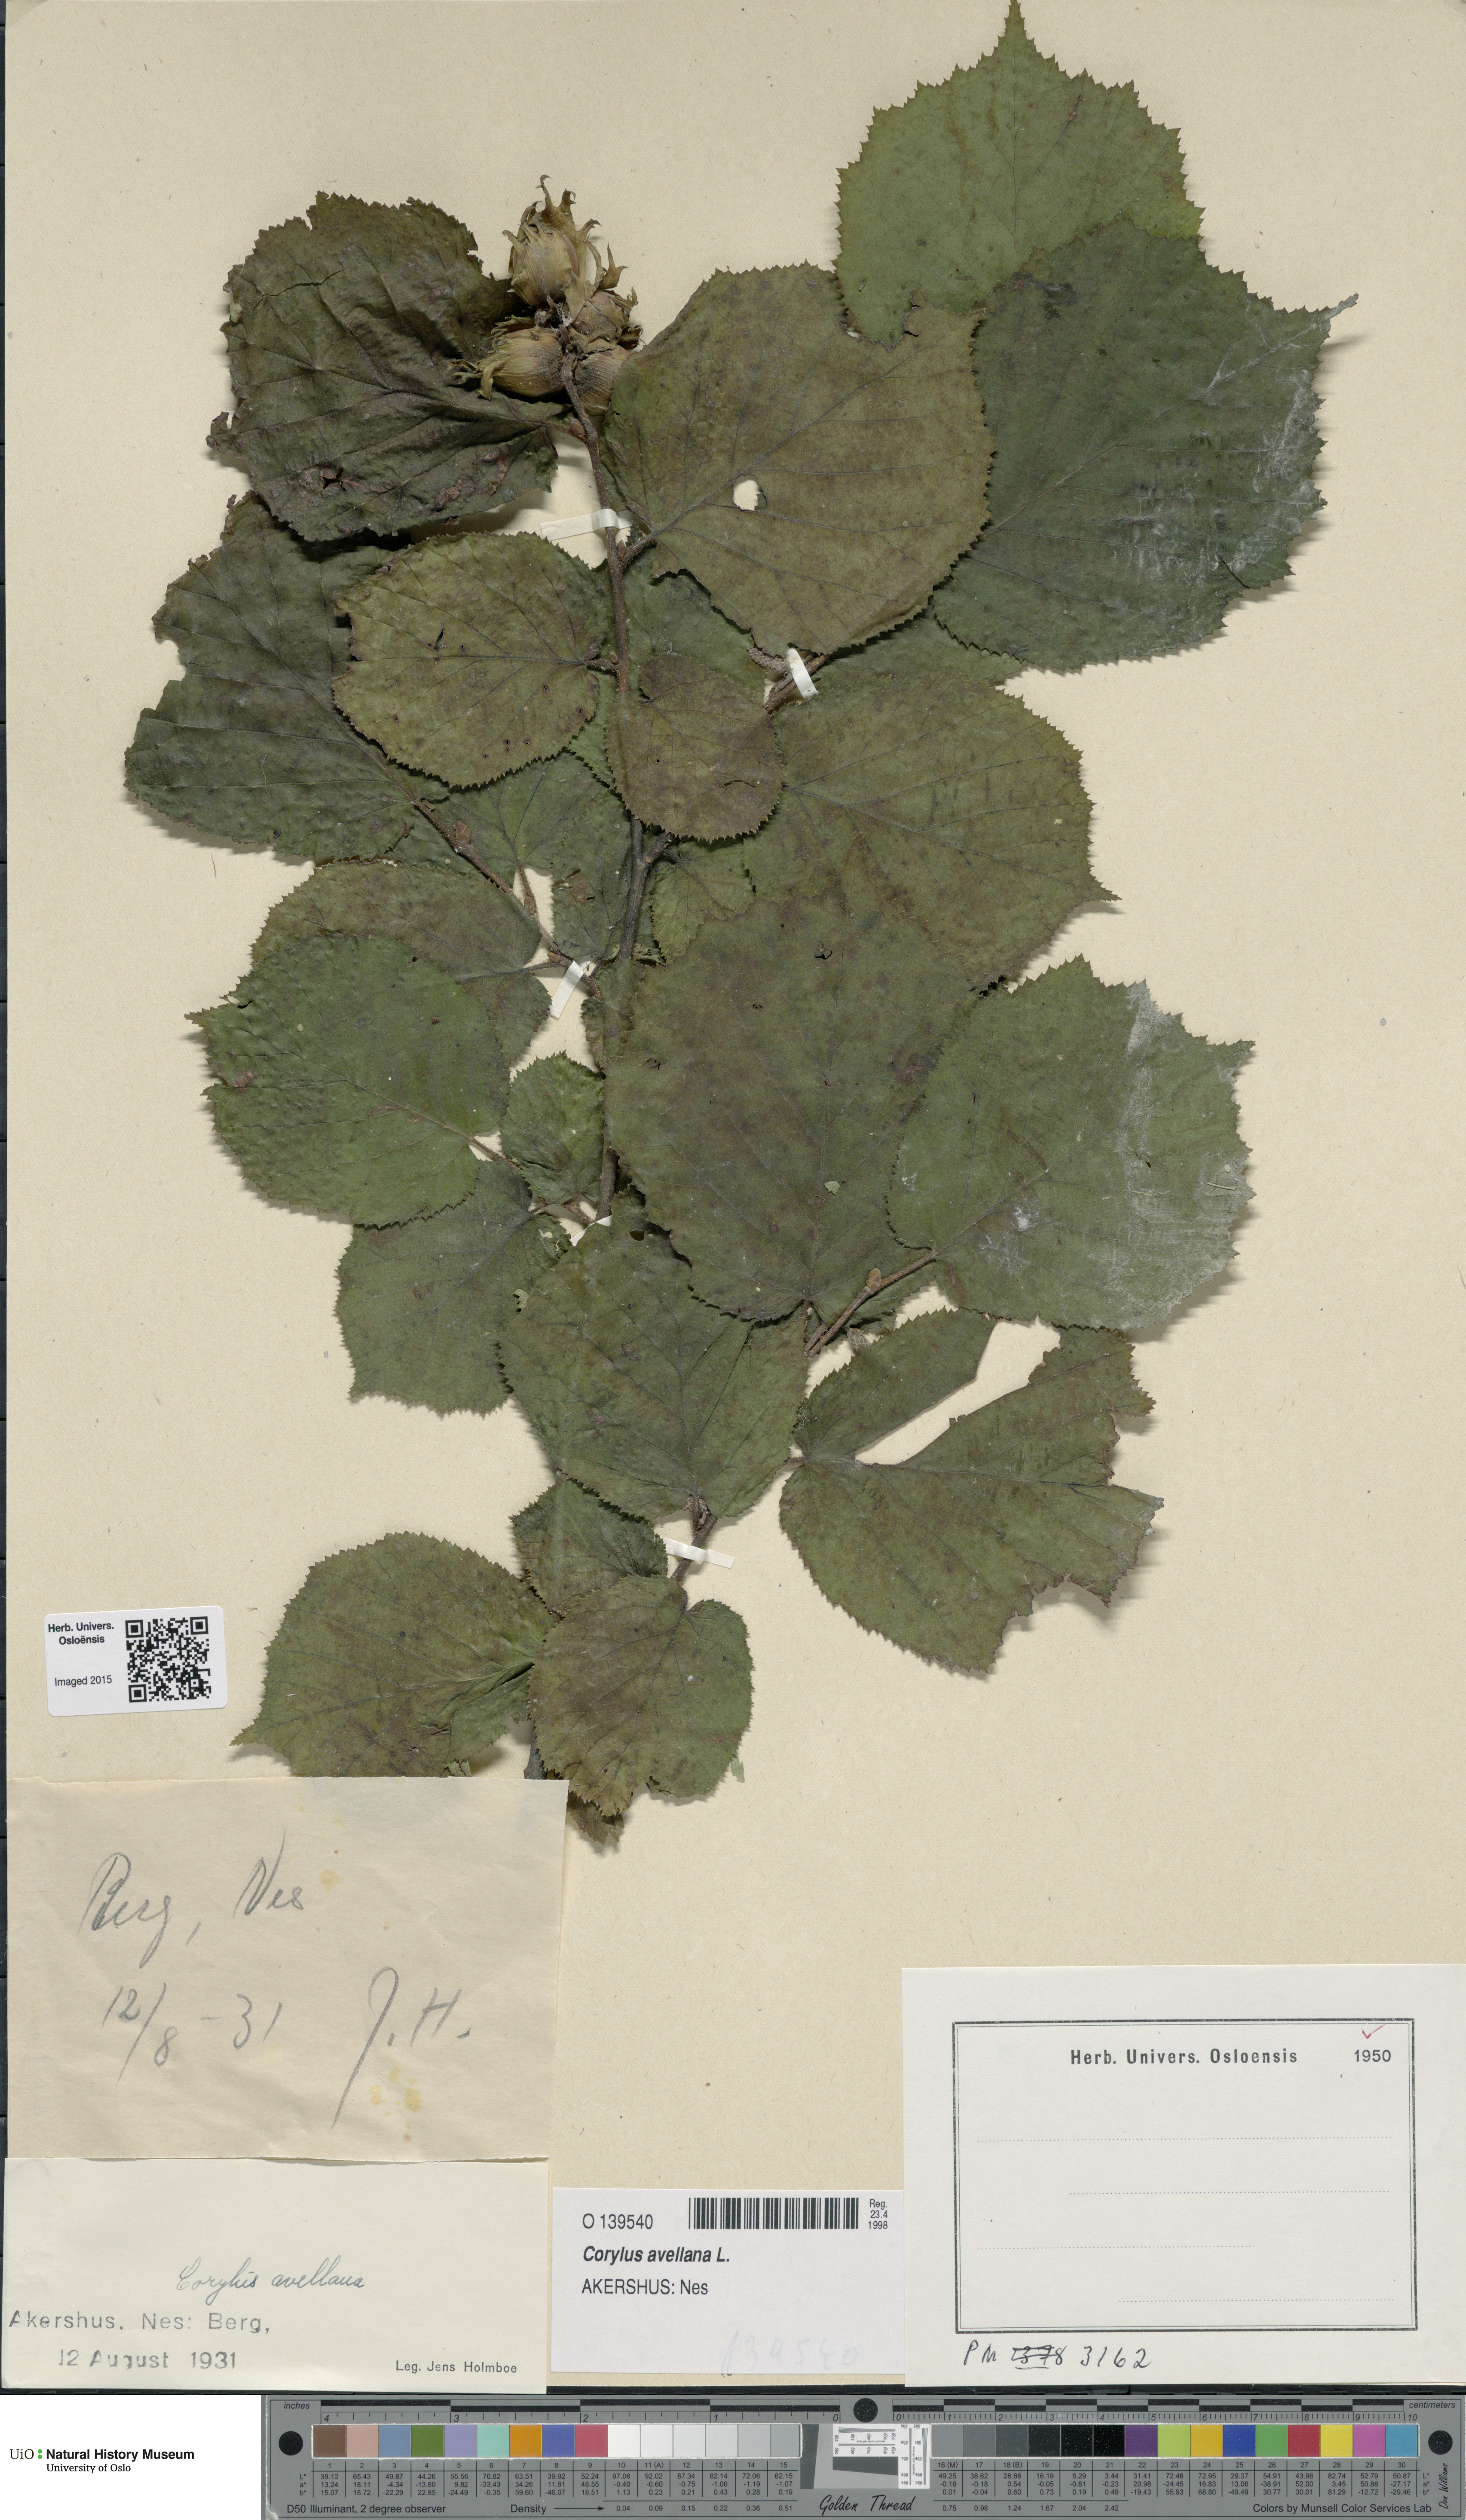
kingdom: Plantae
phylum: Tracheophyta
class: Magnoliopsida
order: Fagales
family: Betulaceae
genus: Corylus
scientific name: Corylus avellana
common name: European hazel
